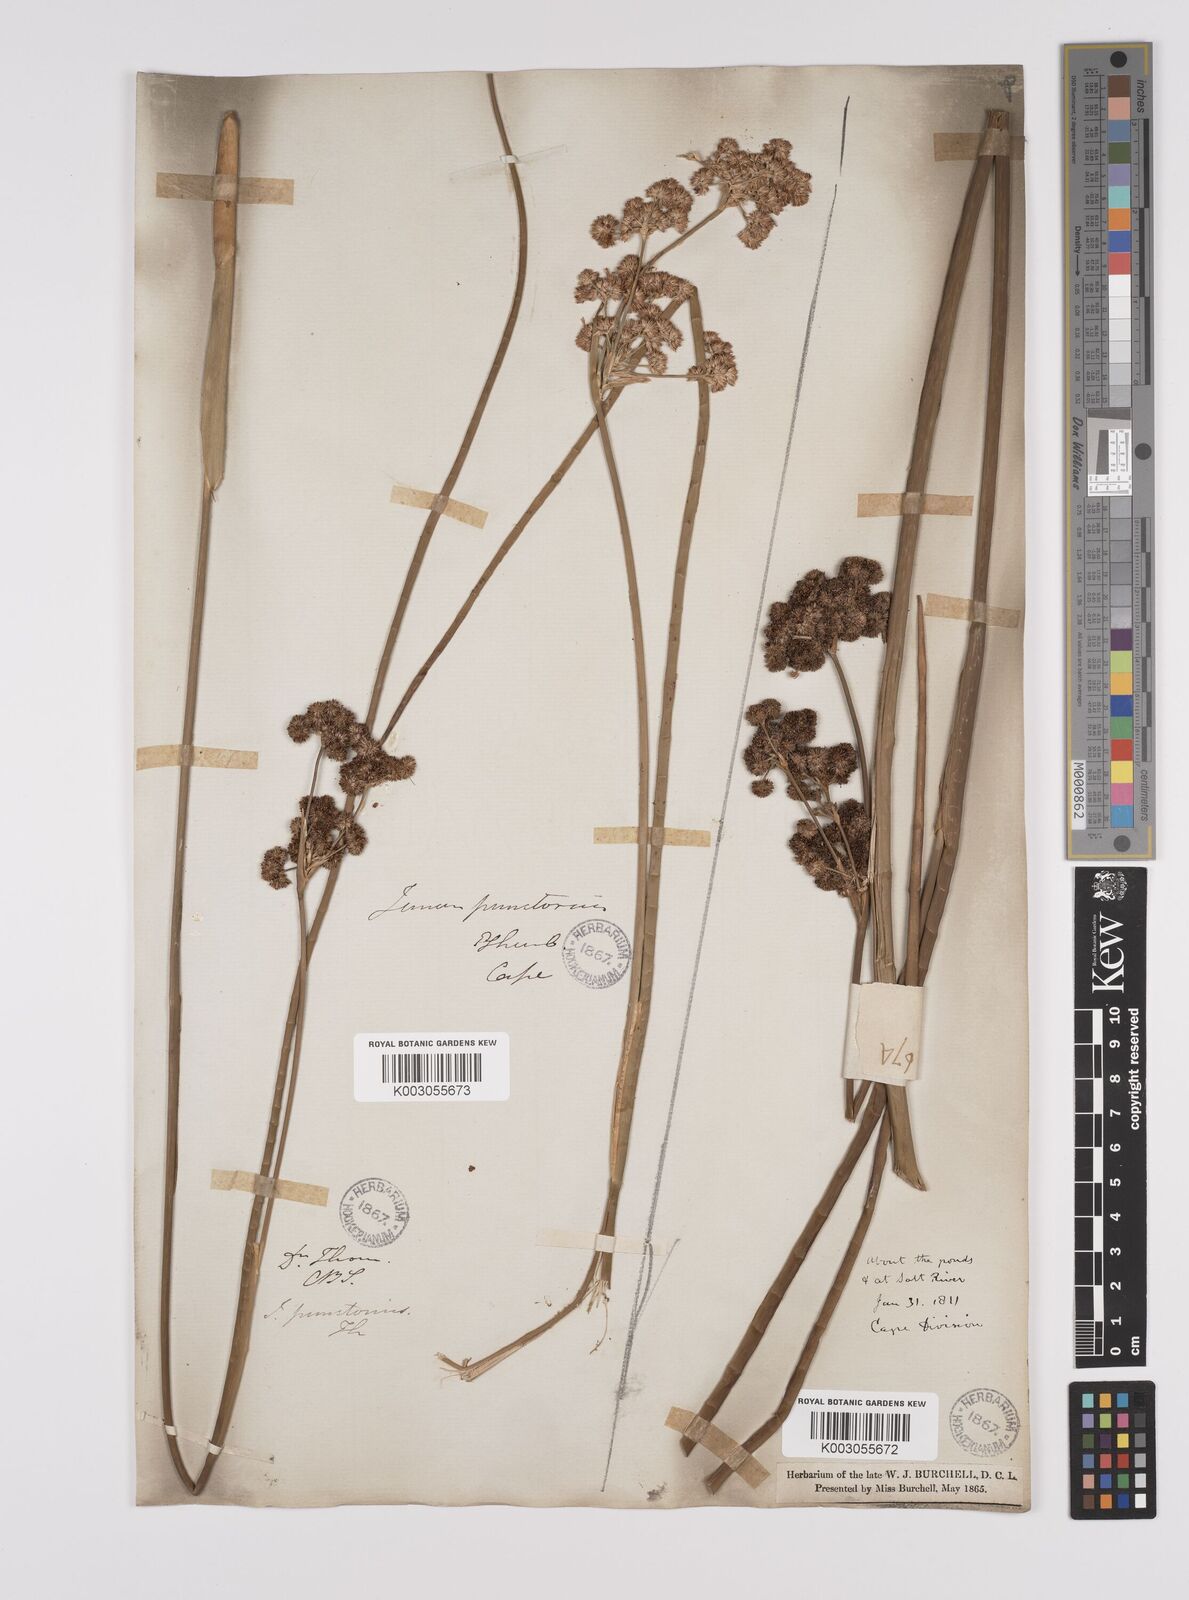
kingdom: Plantae
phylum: Tracheophyta
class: Liliopsida
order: Poales
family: Juncaceae
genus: Juncus
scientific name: Juncus punctorius
